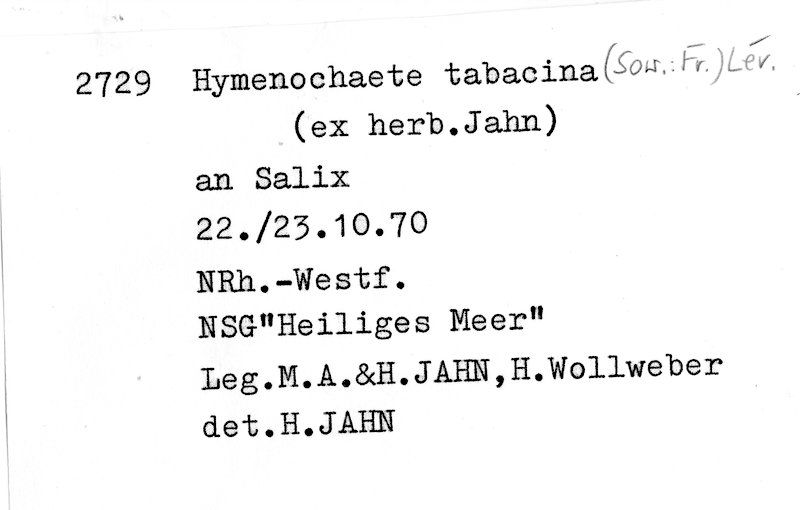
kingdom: Fungi
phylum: Basidiomycota
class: Agaricomycetes
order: Hymenochaetales
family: Hymenochaetaceae
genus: Hydnoporia
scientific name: Hydnoporia tabacina
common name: Willow glue
